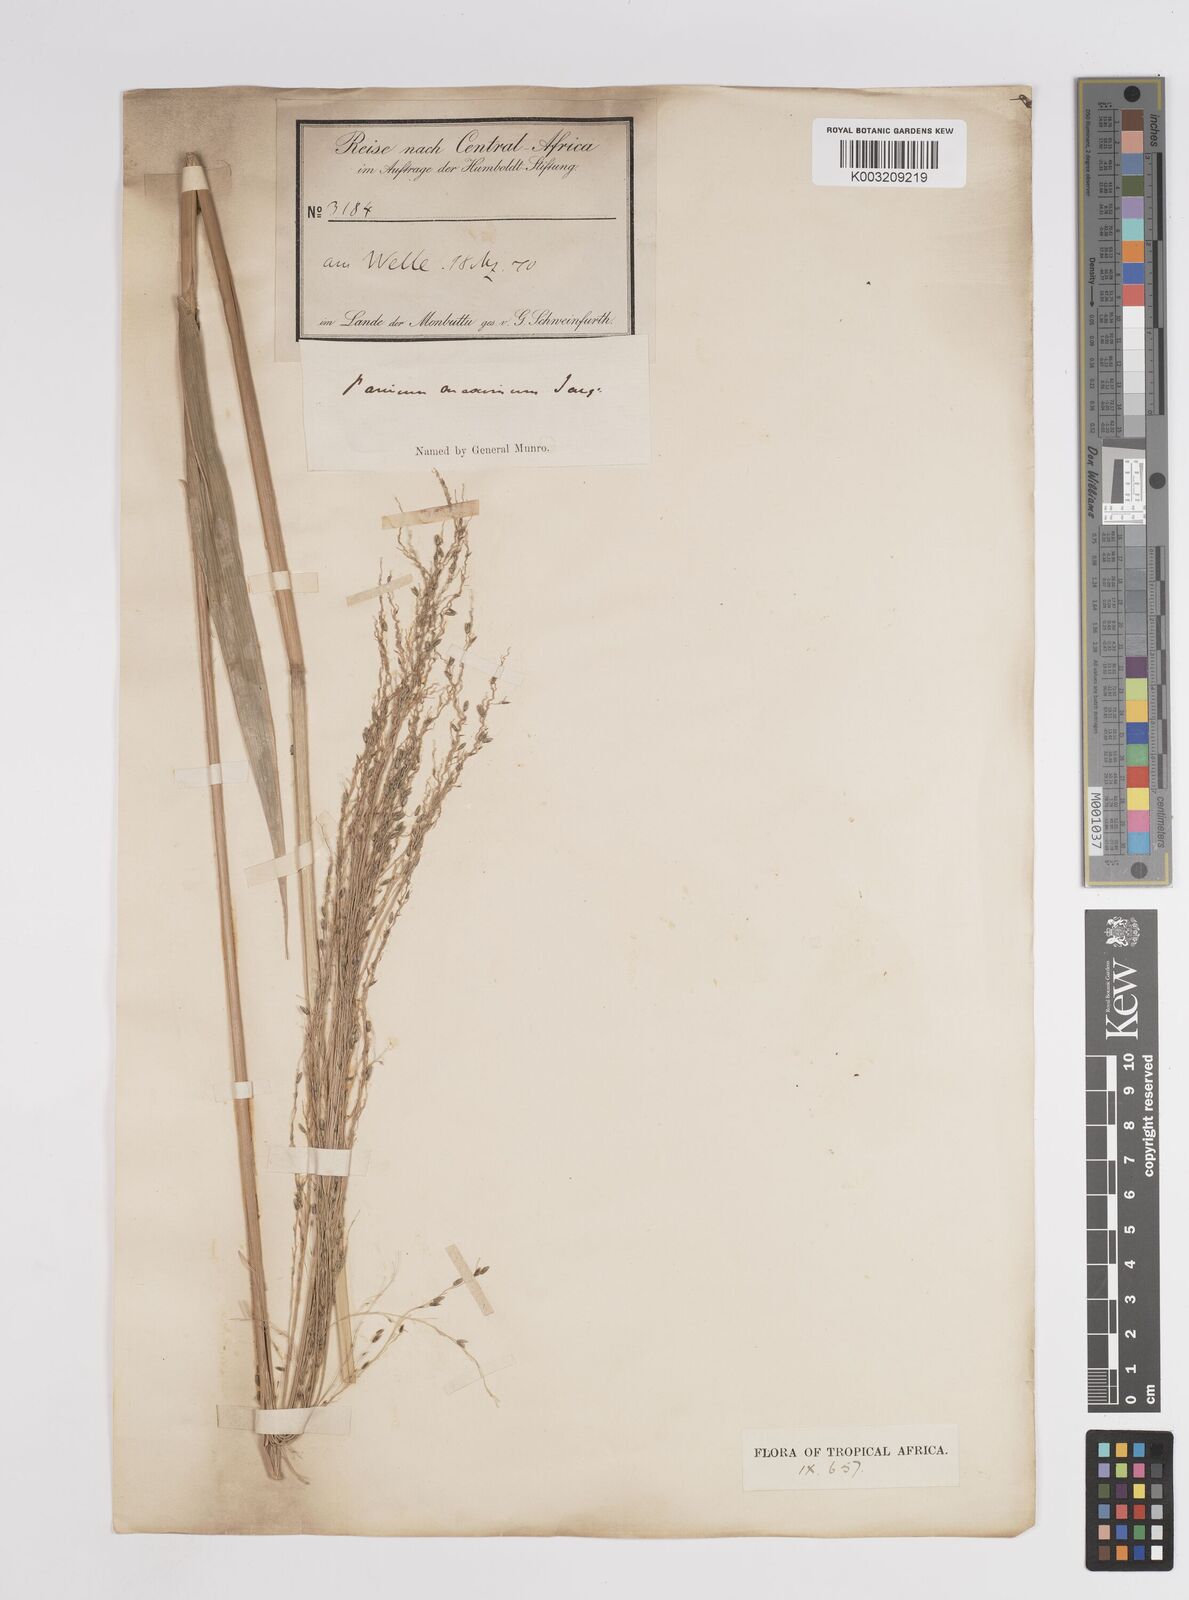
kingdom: Plantae
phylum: Tracheophyta
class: Liliopsida
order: Poales
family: Poaceae
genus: Megathyrsus
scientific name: Megathyrsus maximus
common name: Guineagrass
